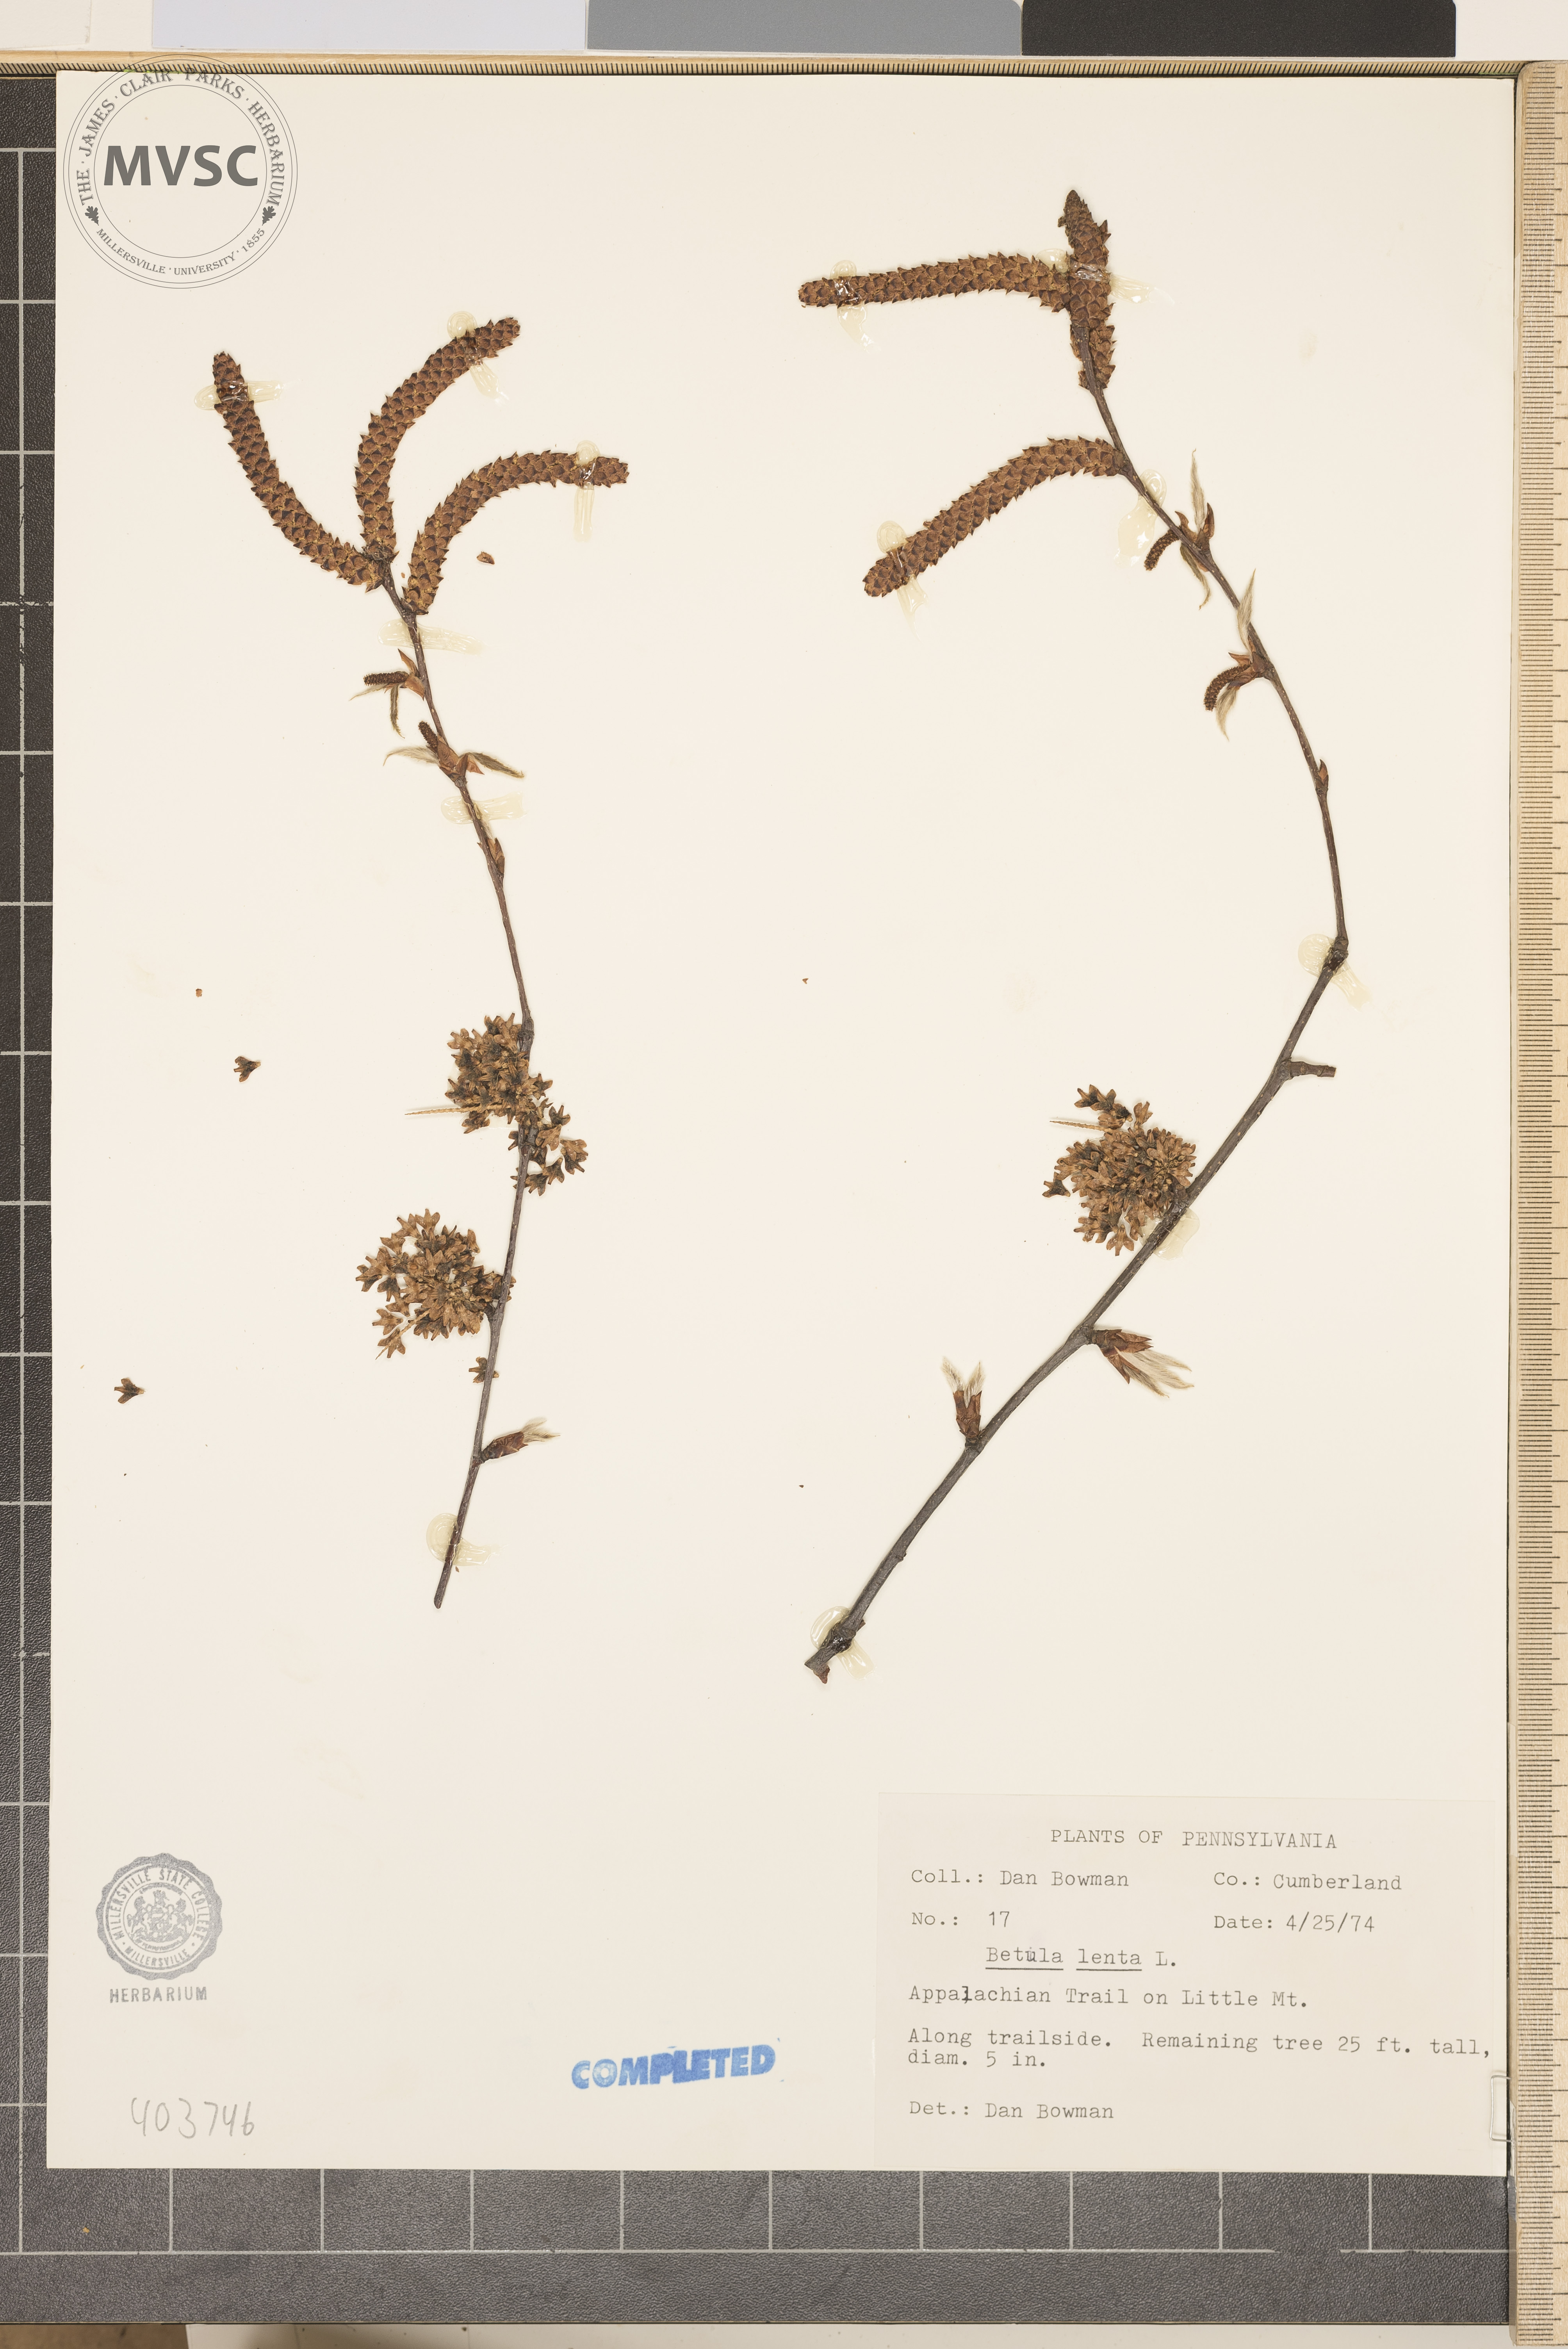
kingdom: Plantae
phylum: Tracheophyta
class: Magnoliopsida
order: Fagales
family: Betulaceae
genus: Betula
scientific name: Betula lenta
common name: Sweet Birch
